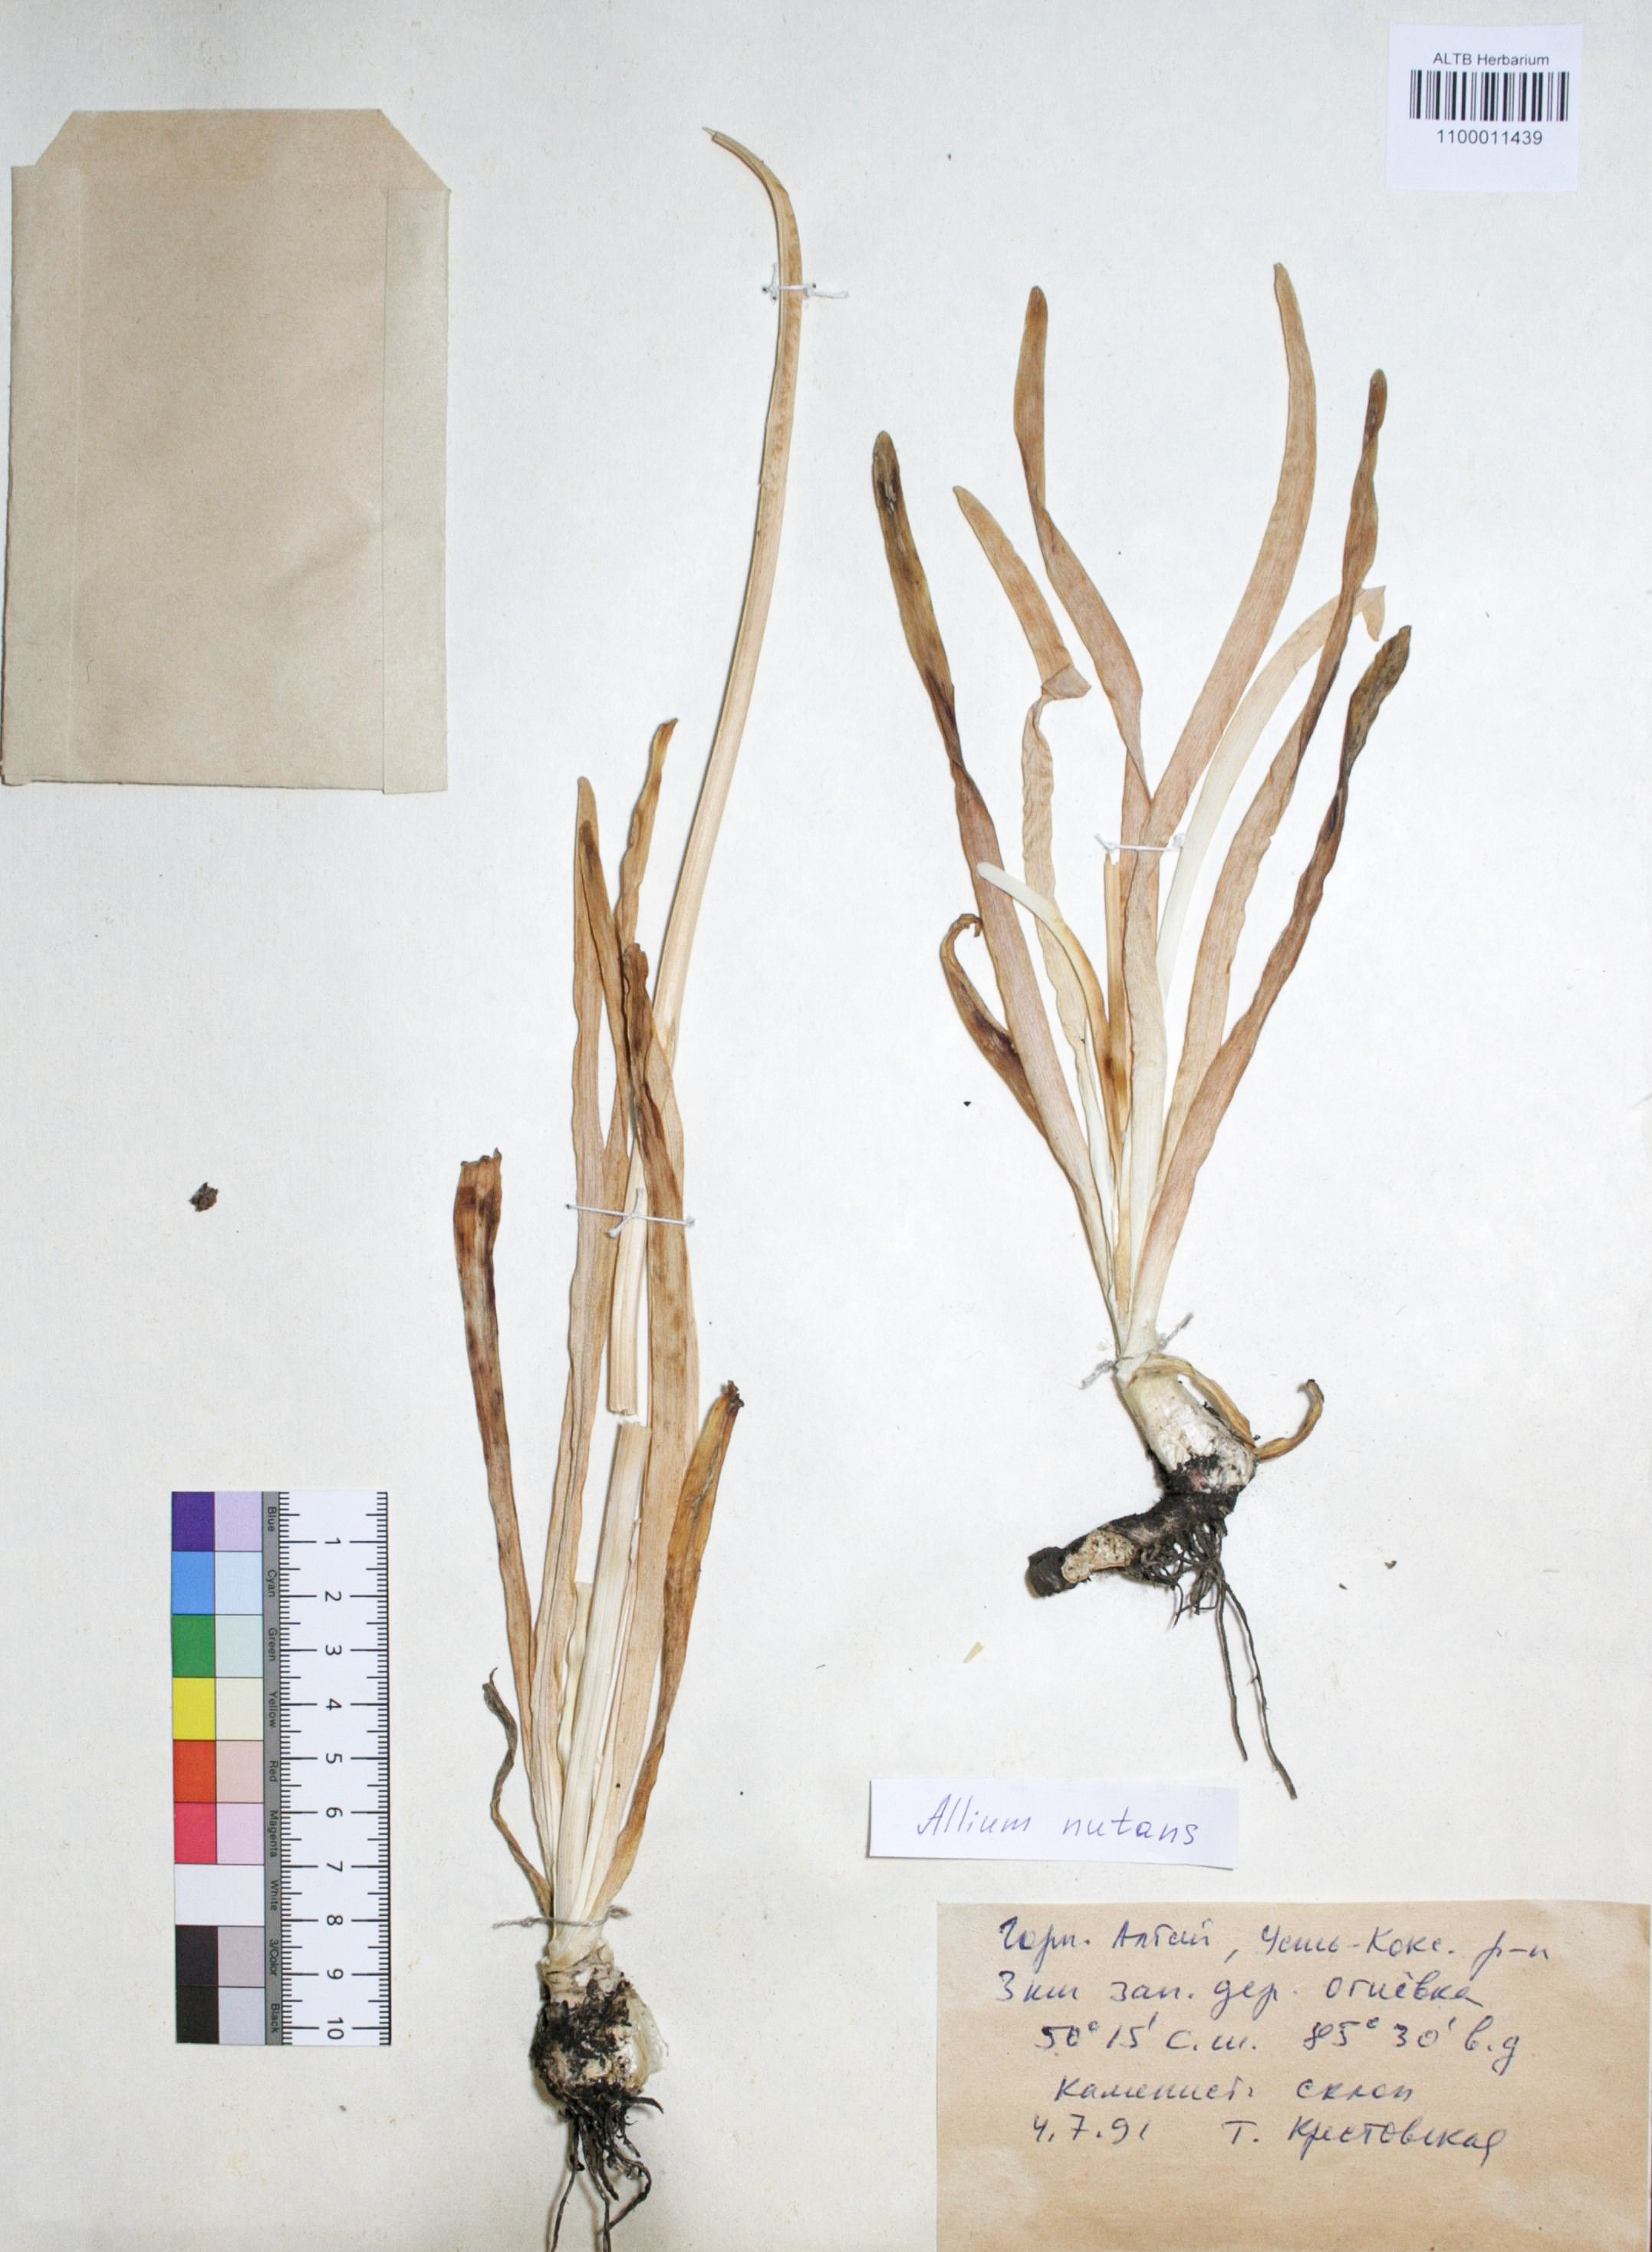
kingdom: Plantae
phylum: Tracheophyta
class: Liliopsida
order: Asparagales
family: Amaryllidaceae
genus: Allium
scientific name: Allium nutans
